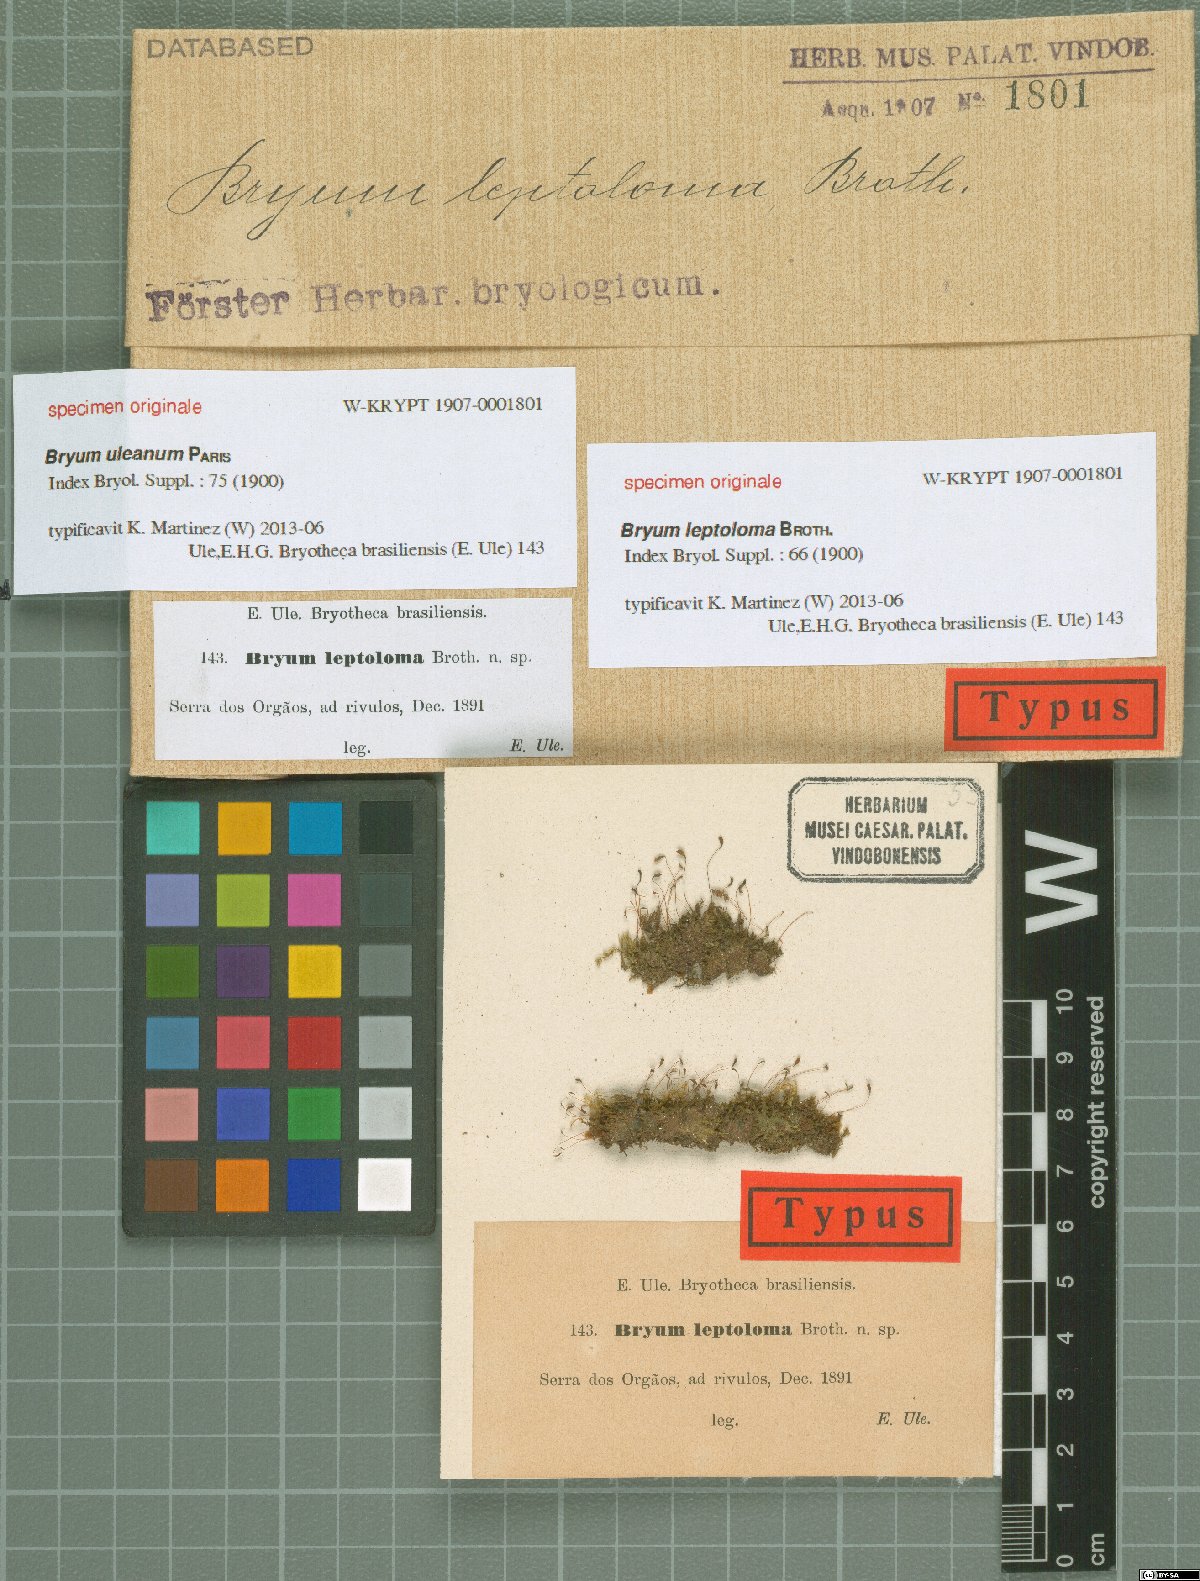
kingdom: Plantae
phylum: Bryophyta
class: Bryopsida
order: Bryales
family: Bryaceae
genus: Plagiobryoides
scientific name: Plagiobryoides cellularis
